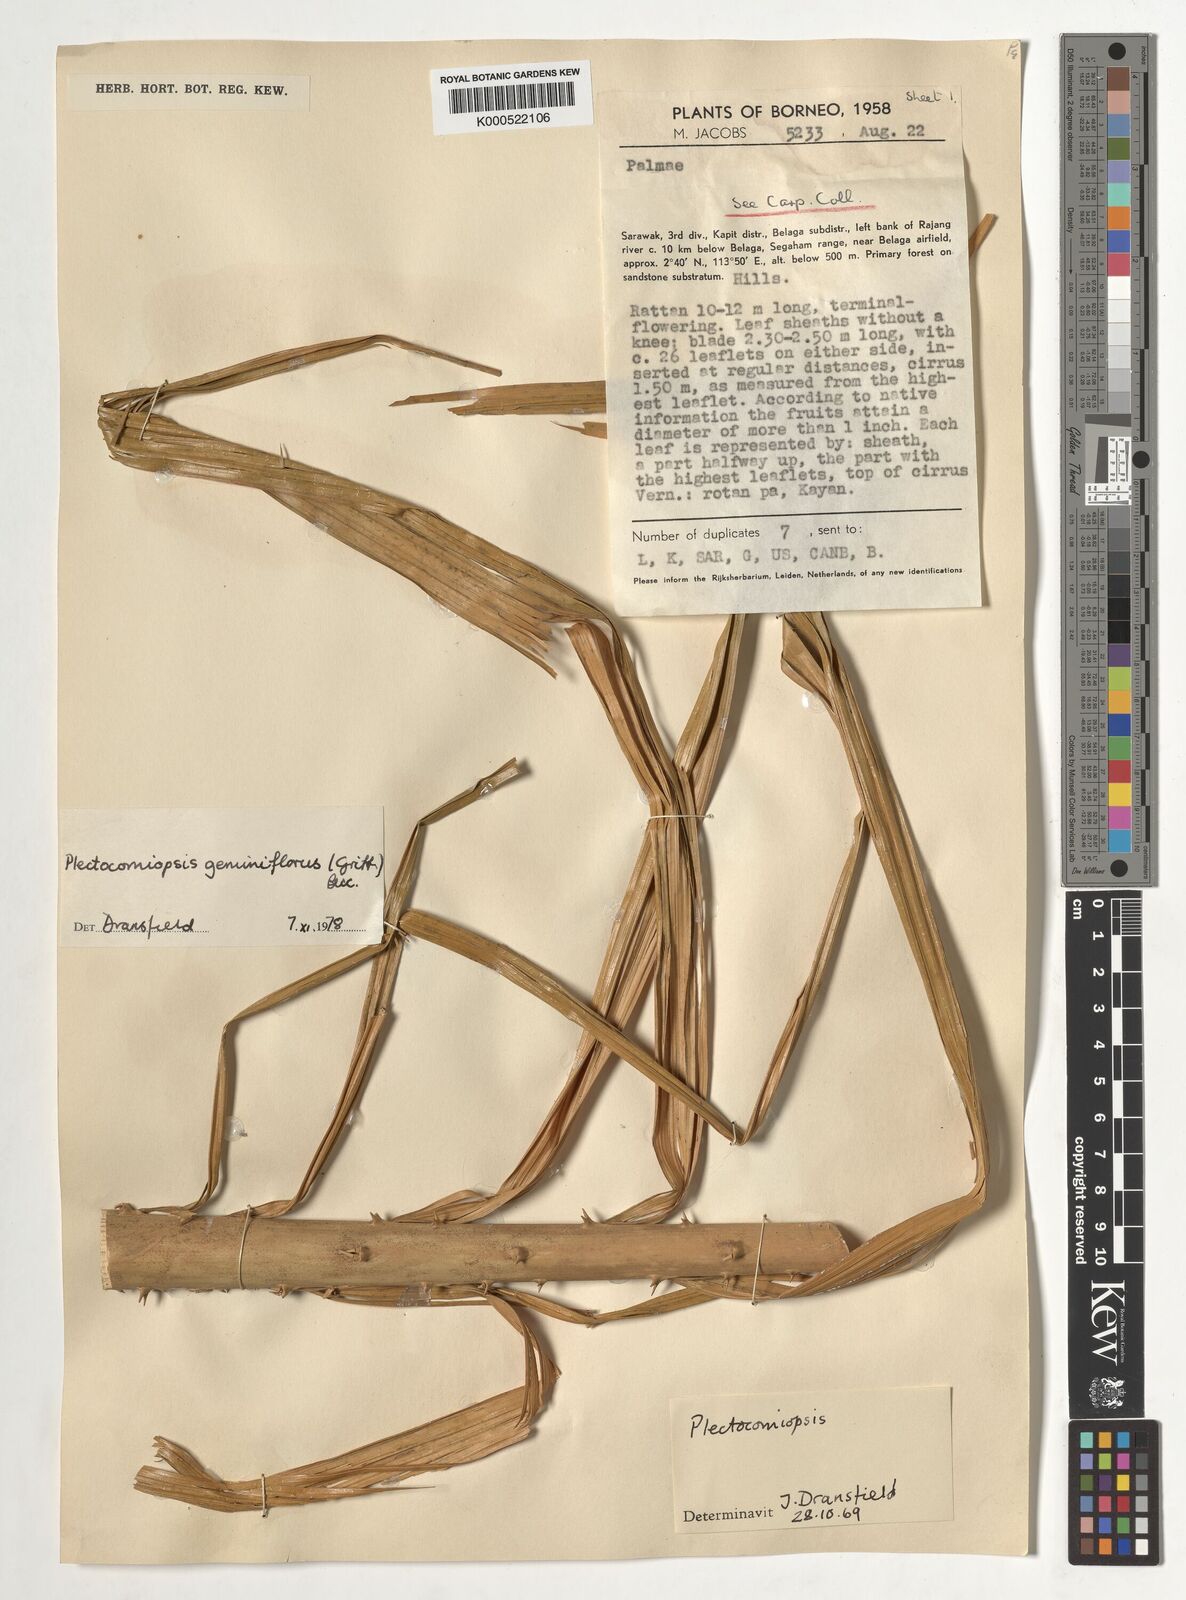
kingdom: Plantae
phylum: Tracheophyta
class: Liliopsida
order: Arecales
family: Arecaceae
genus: Plectocomiopsis
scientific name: Plectocomiopsis geminiflora
